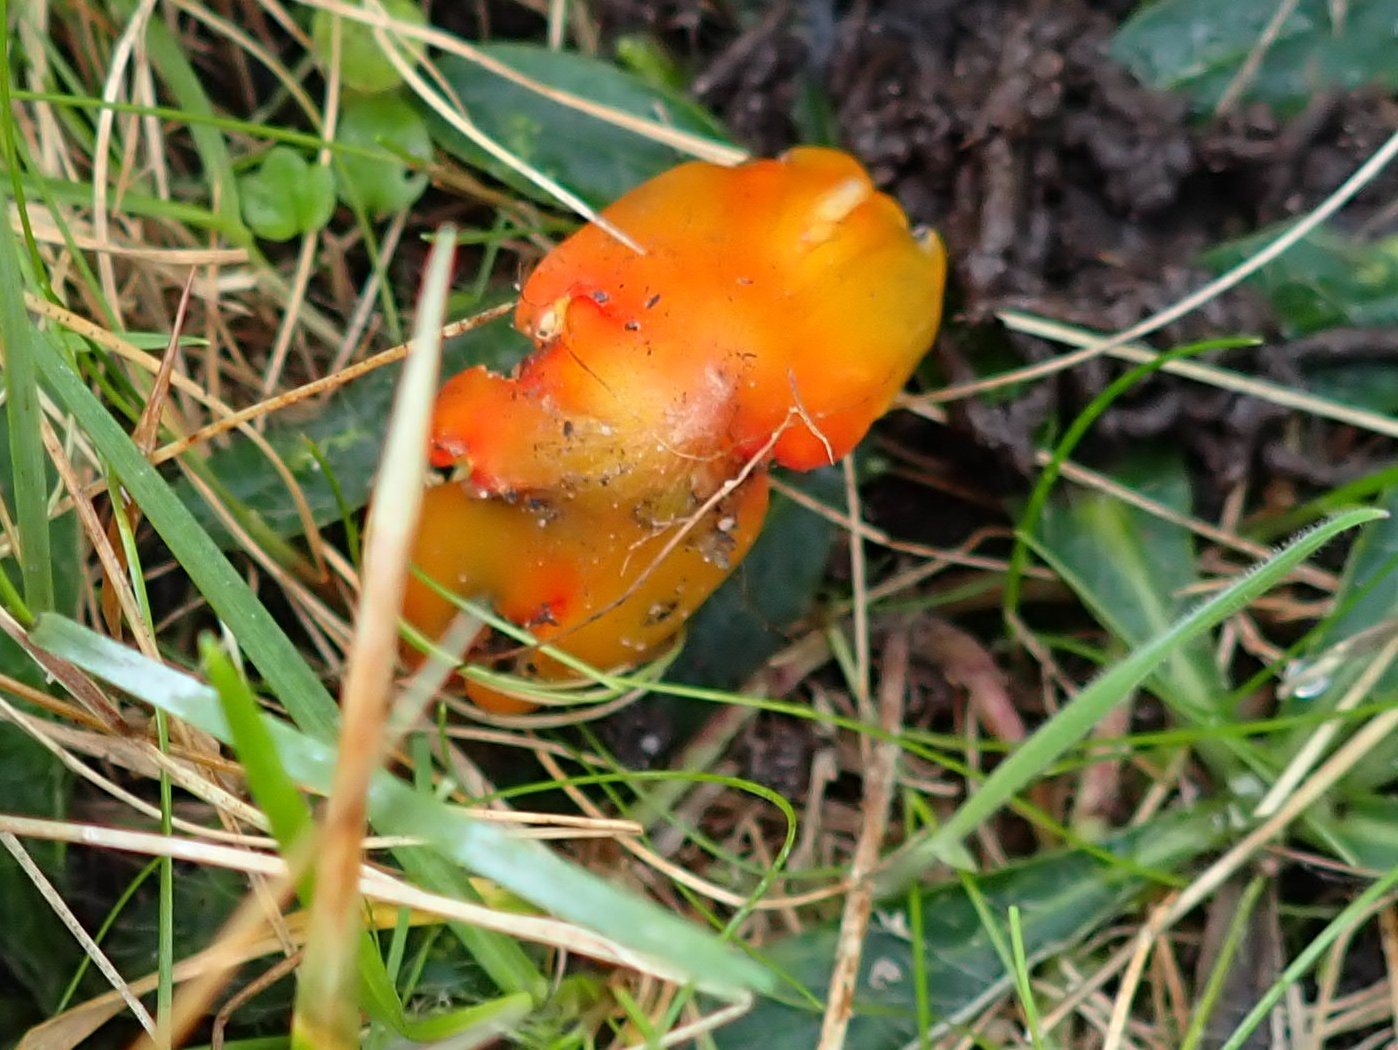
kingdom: Fungi
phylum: Basidiomycota
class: Agaricomycetes
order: Agaricales
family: Hygrophoraceae
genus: Hygrocybe
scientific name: Hygrocybe conica
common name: kegle-vokshat
